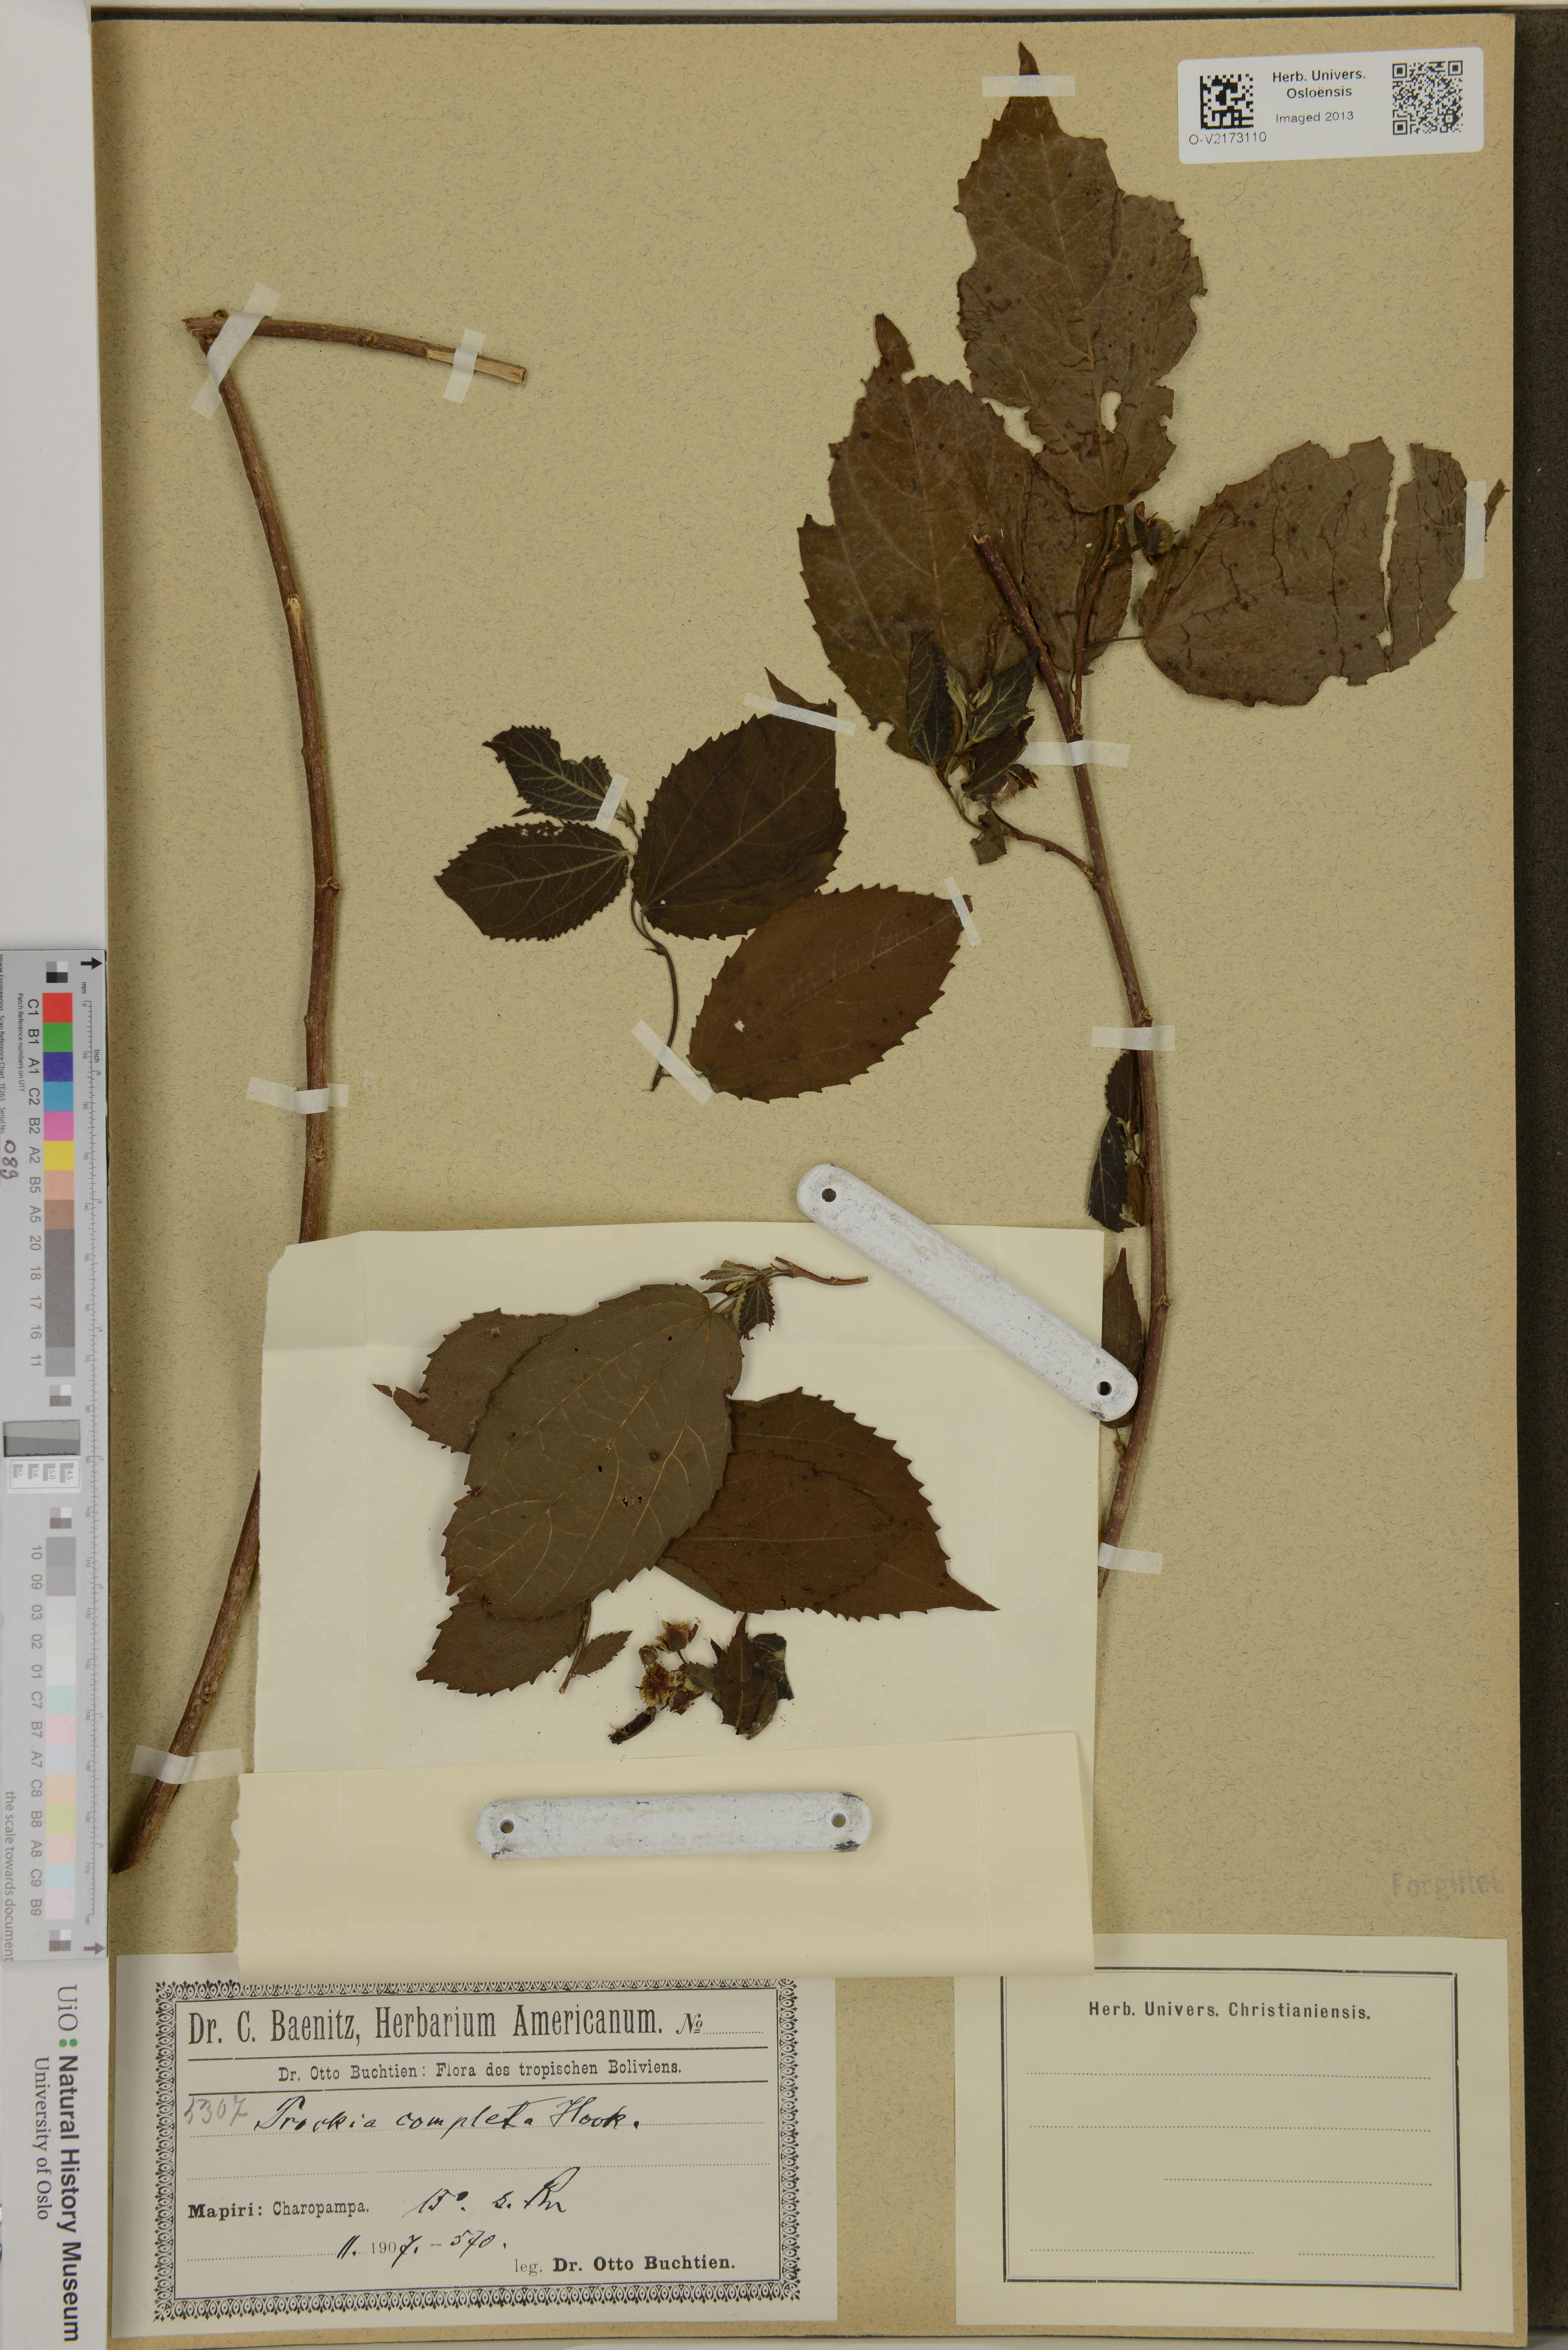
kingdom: Plantae
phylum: Tracheophyta
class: Magnoliopsida
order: Malpighiales
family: Salicaceae
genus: Prockia
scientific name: Prockia crucis
